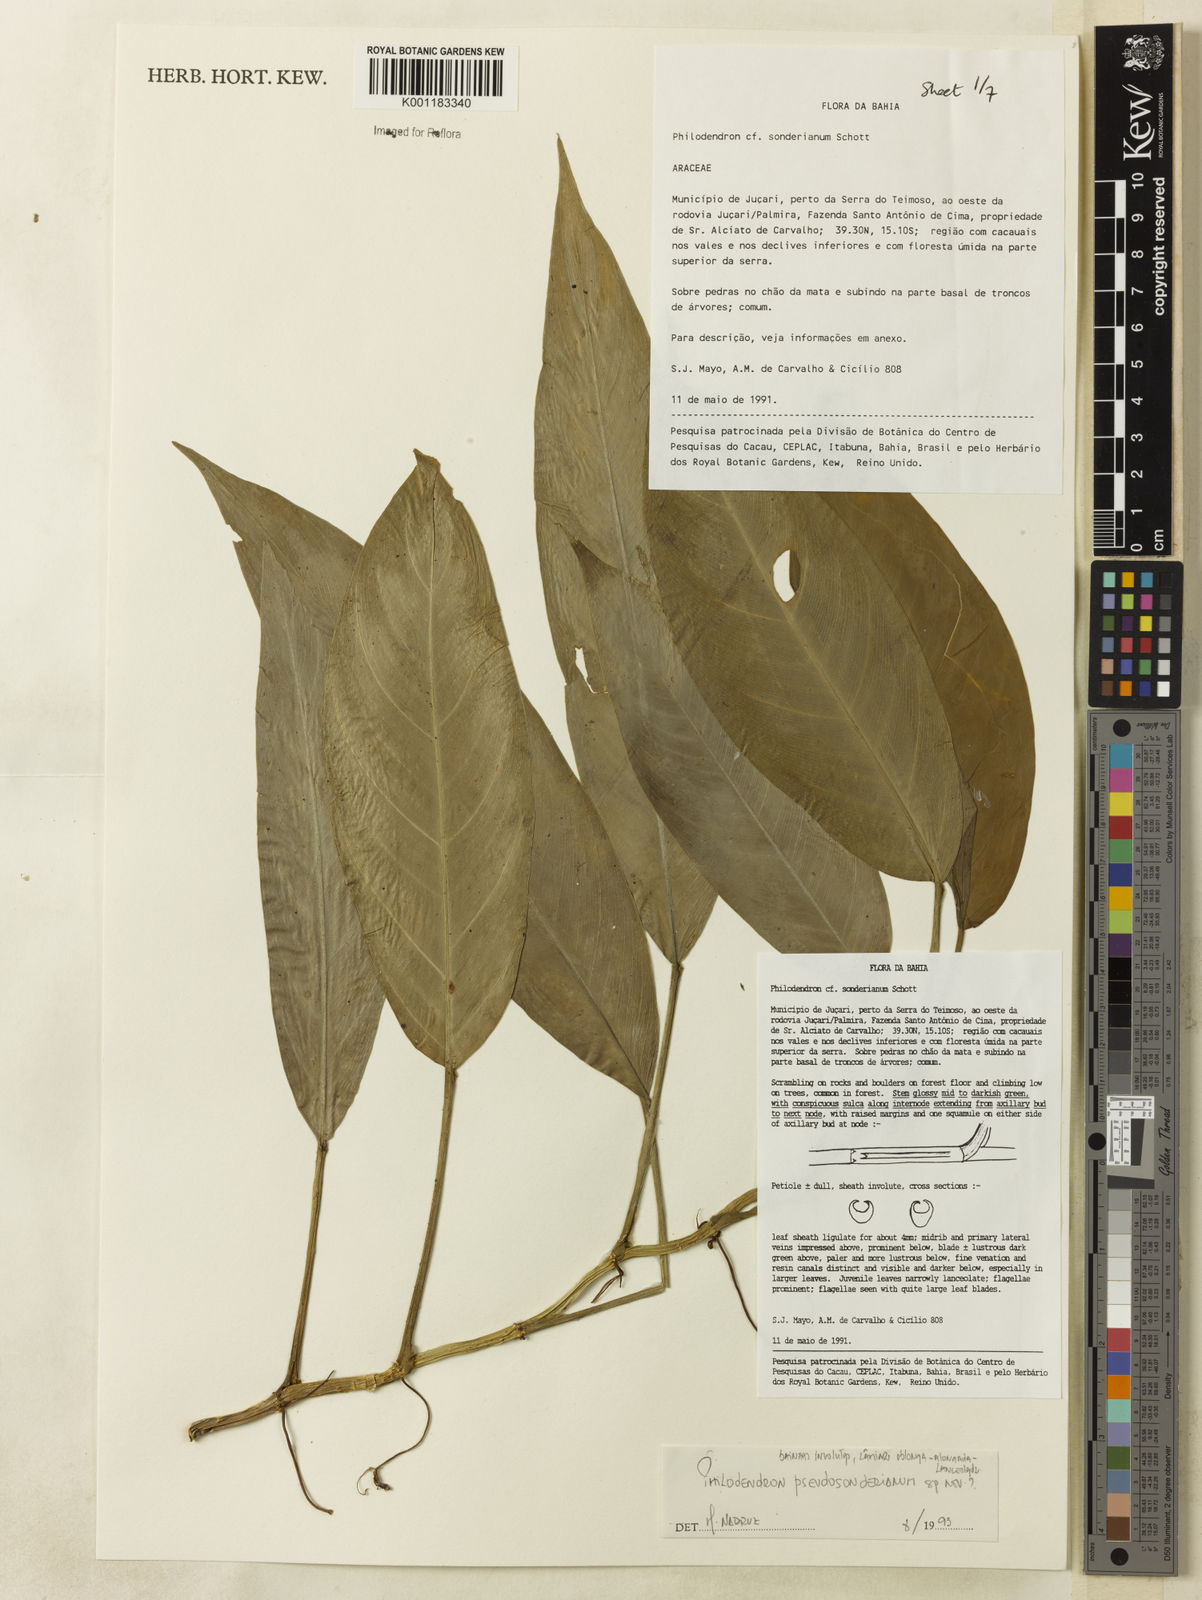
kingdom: Plantae
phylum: Tracheophyta
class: Liliopsida
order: Alismatales
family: Araceae
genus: Philodendron
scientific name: Philodendron
